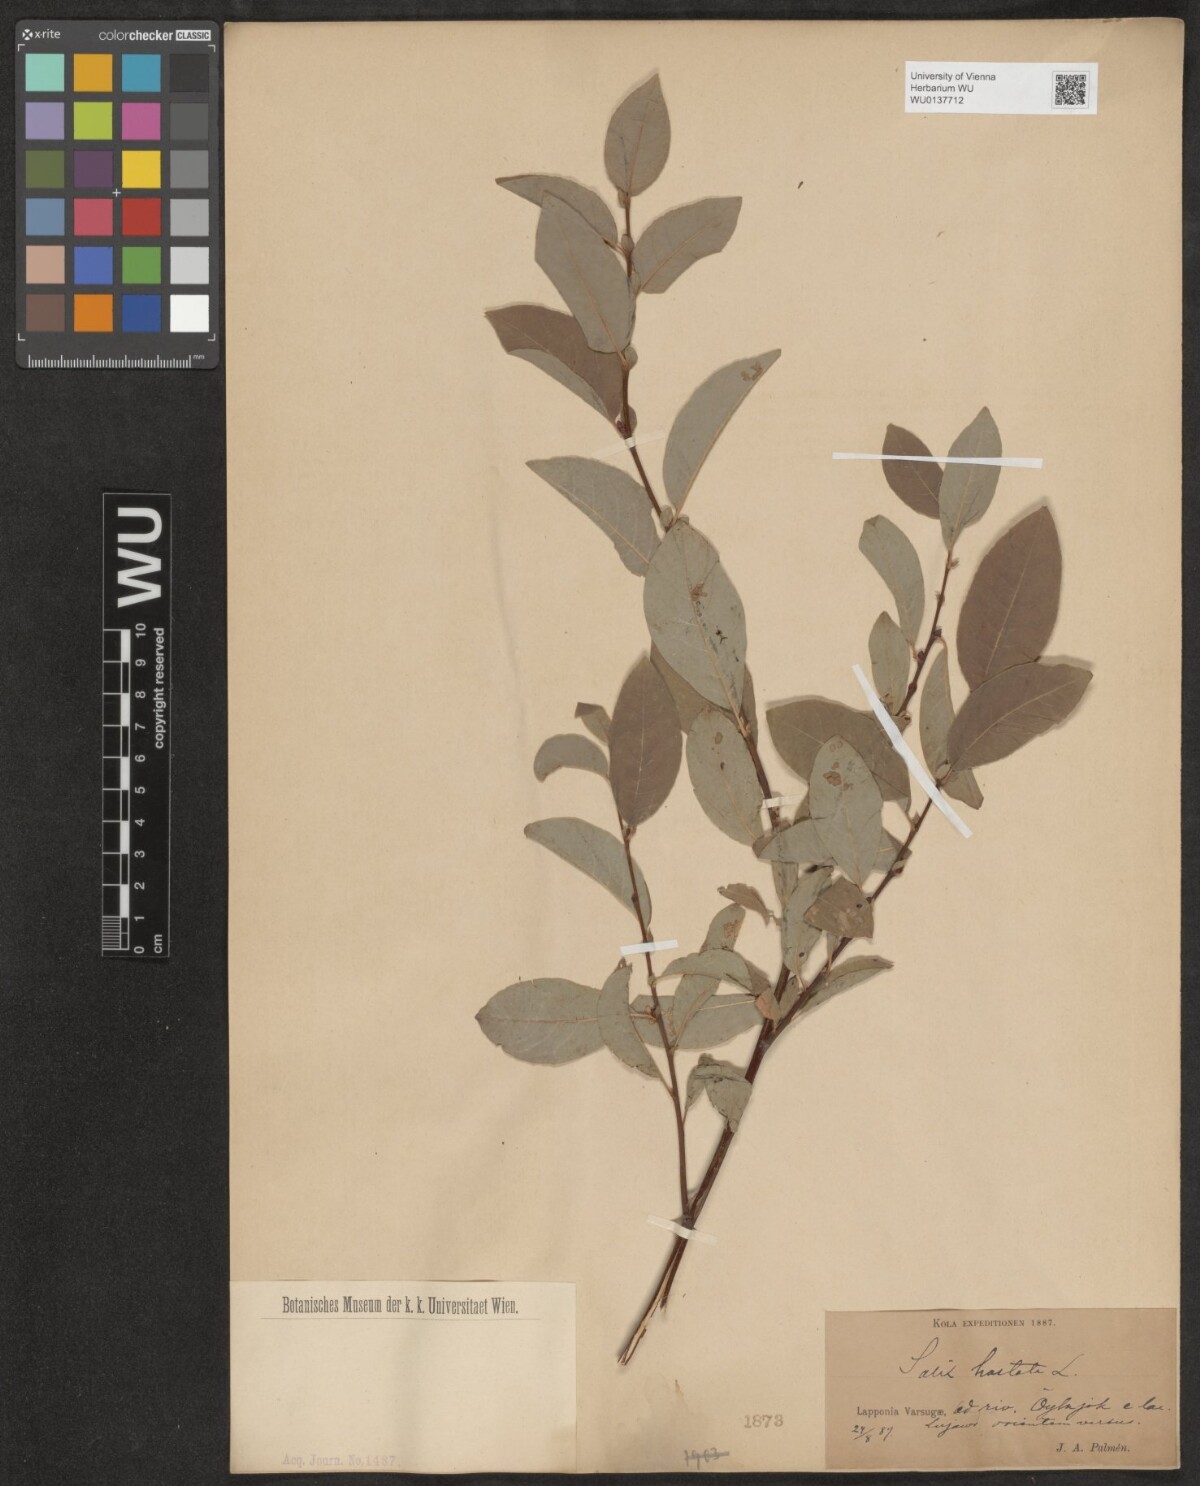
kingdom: Plantae
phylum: Tracheophyta
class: Magnoliopsida
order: Malpighiales
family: Salicaceae
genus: Salix
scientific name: Salix hastata
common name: Halberd willow
